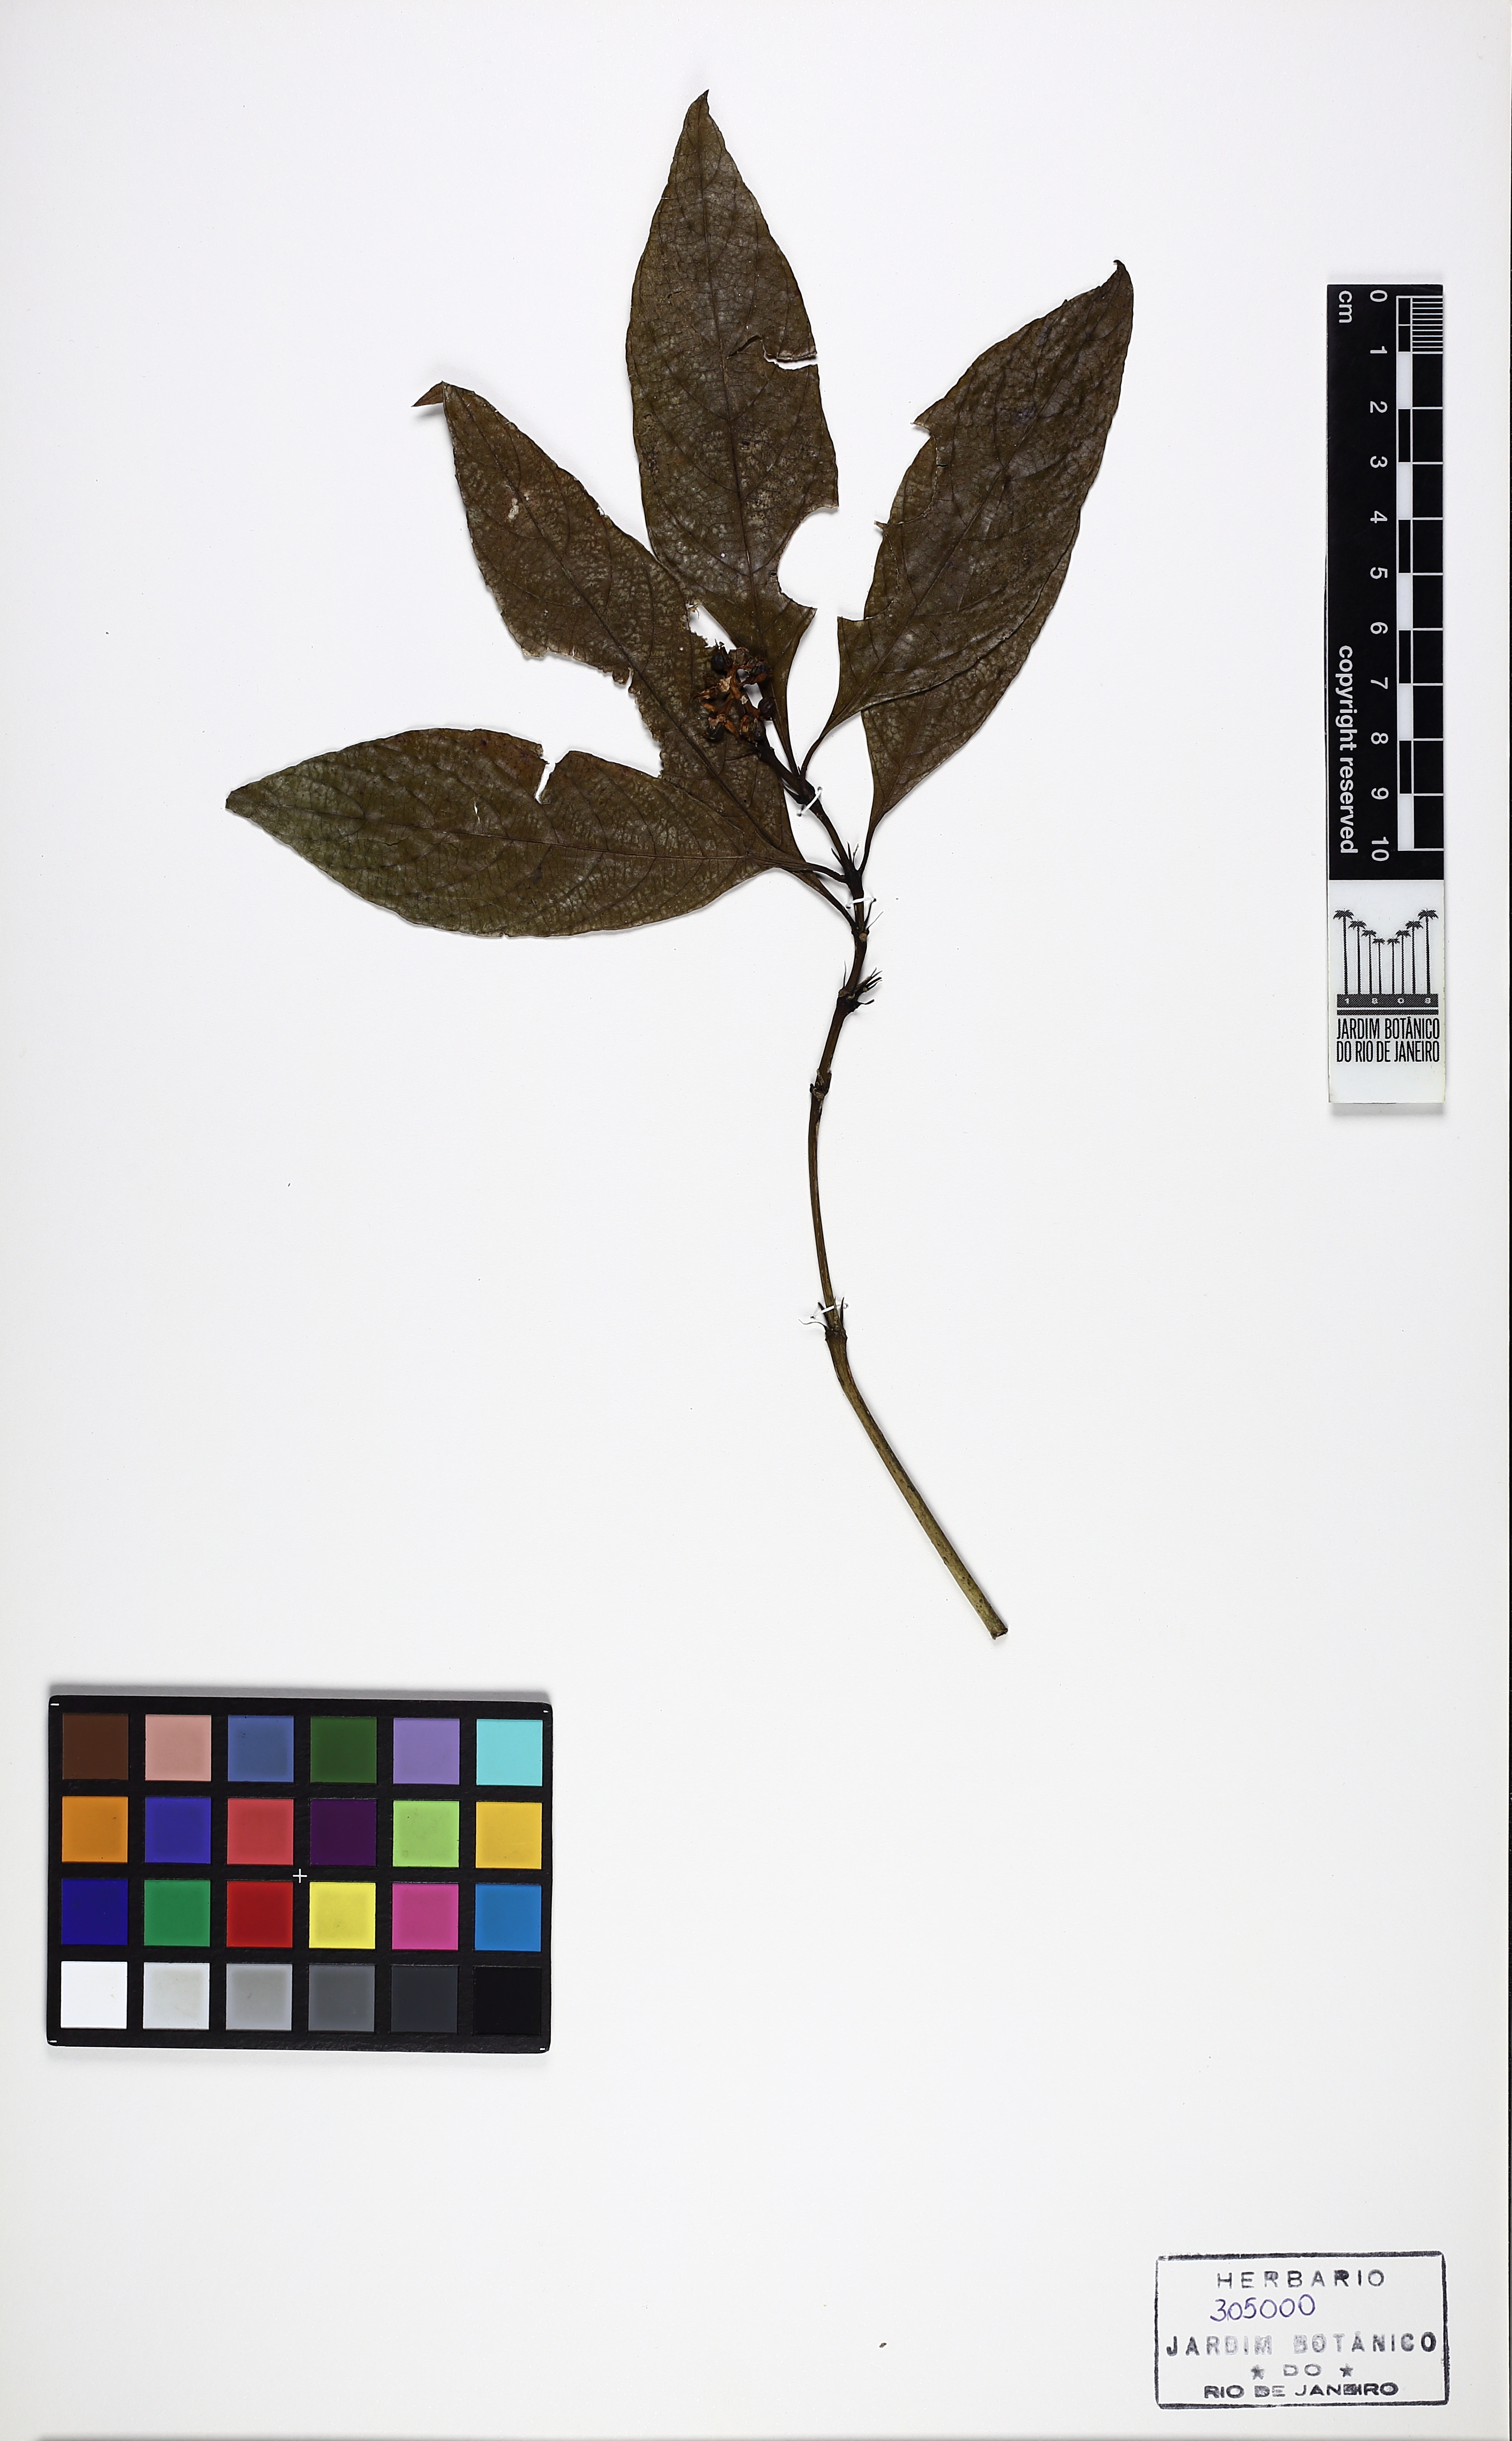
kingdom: Plantae
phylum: Tracheophyta
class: Magnoliopsida
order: Gentianales
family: Rubiaceae
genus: Palicourea
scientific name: Palicourea hoffmannseggiana
